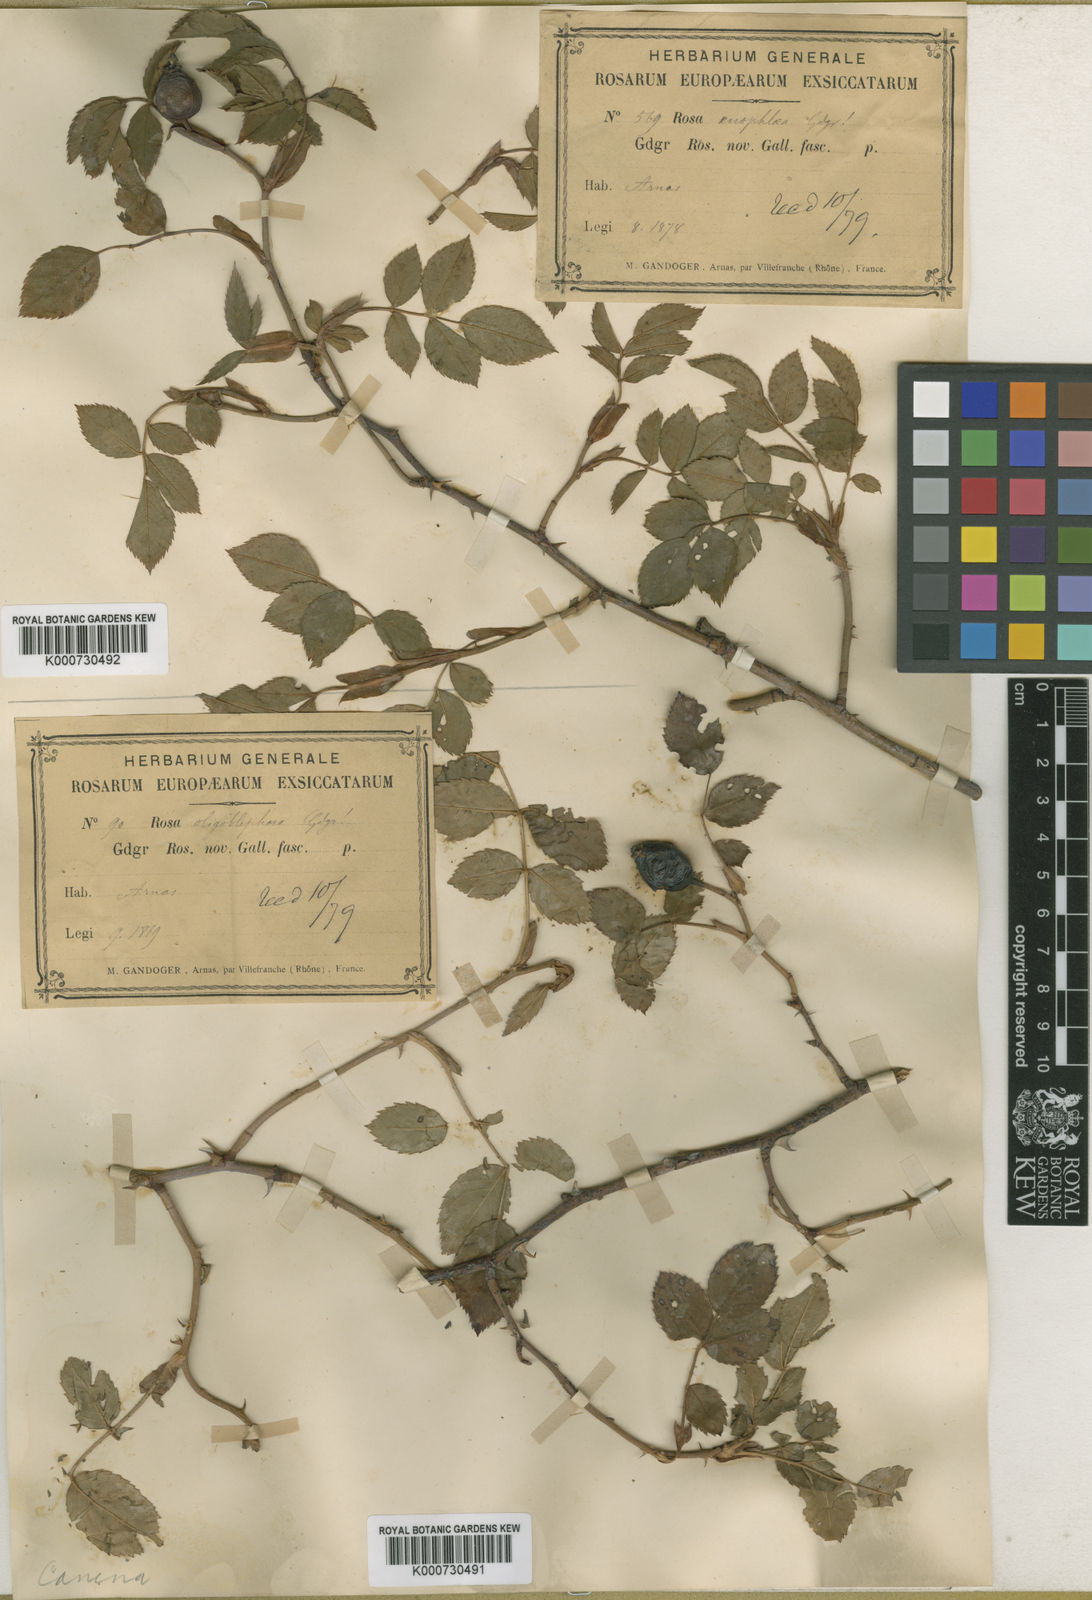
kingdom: Plantae
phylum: Tracheophyta
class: Magnoliopsida
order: Rosales
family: Rosaceae
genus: Rosa
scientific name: Rosa canina
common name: Dog rose
